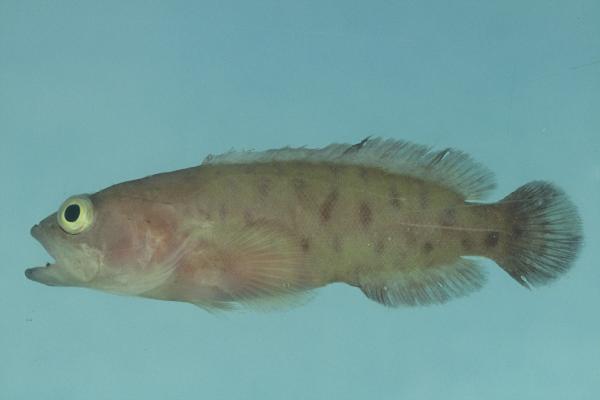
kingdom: Animalia
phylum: Chordata
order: Perciformes
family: Serranidae
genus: Aporops
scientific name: Aporops bilinearis
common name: Poreless podge
